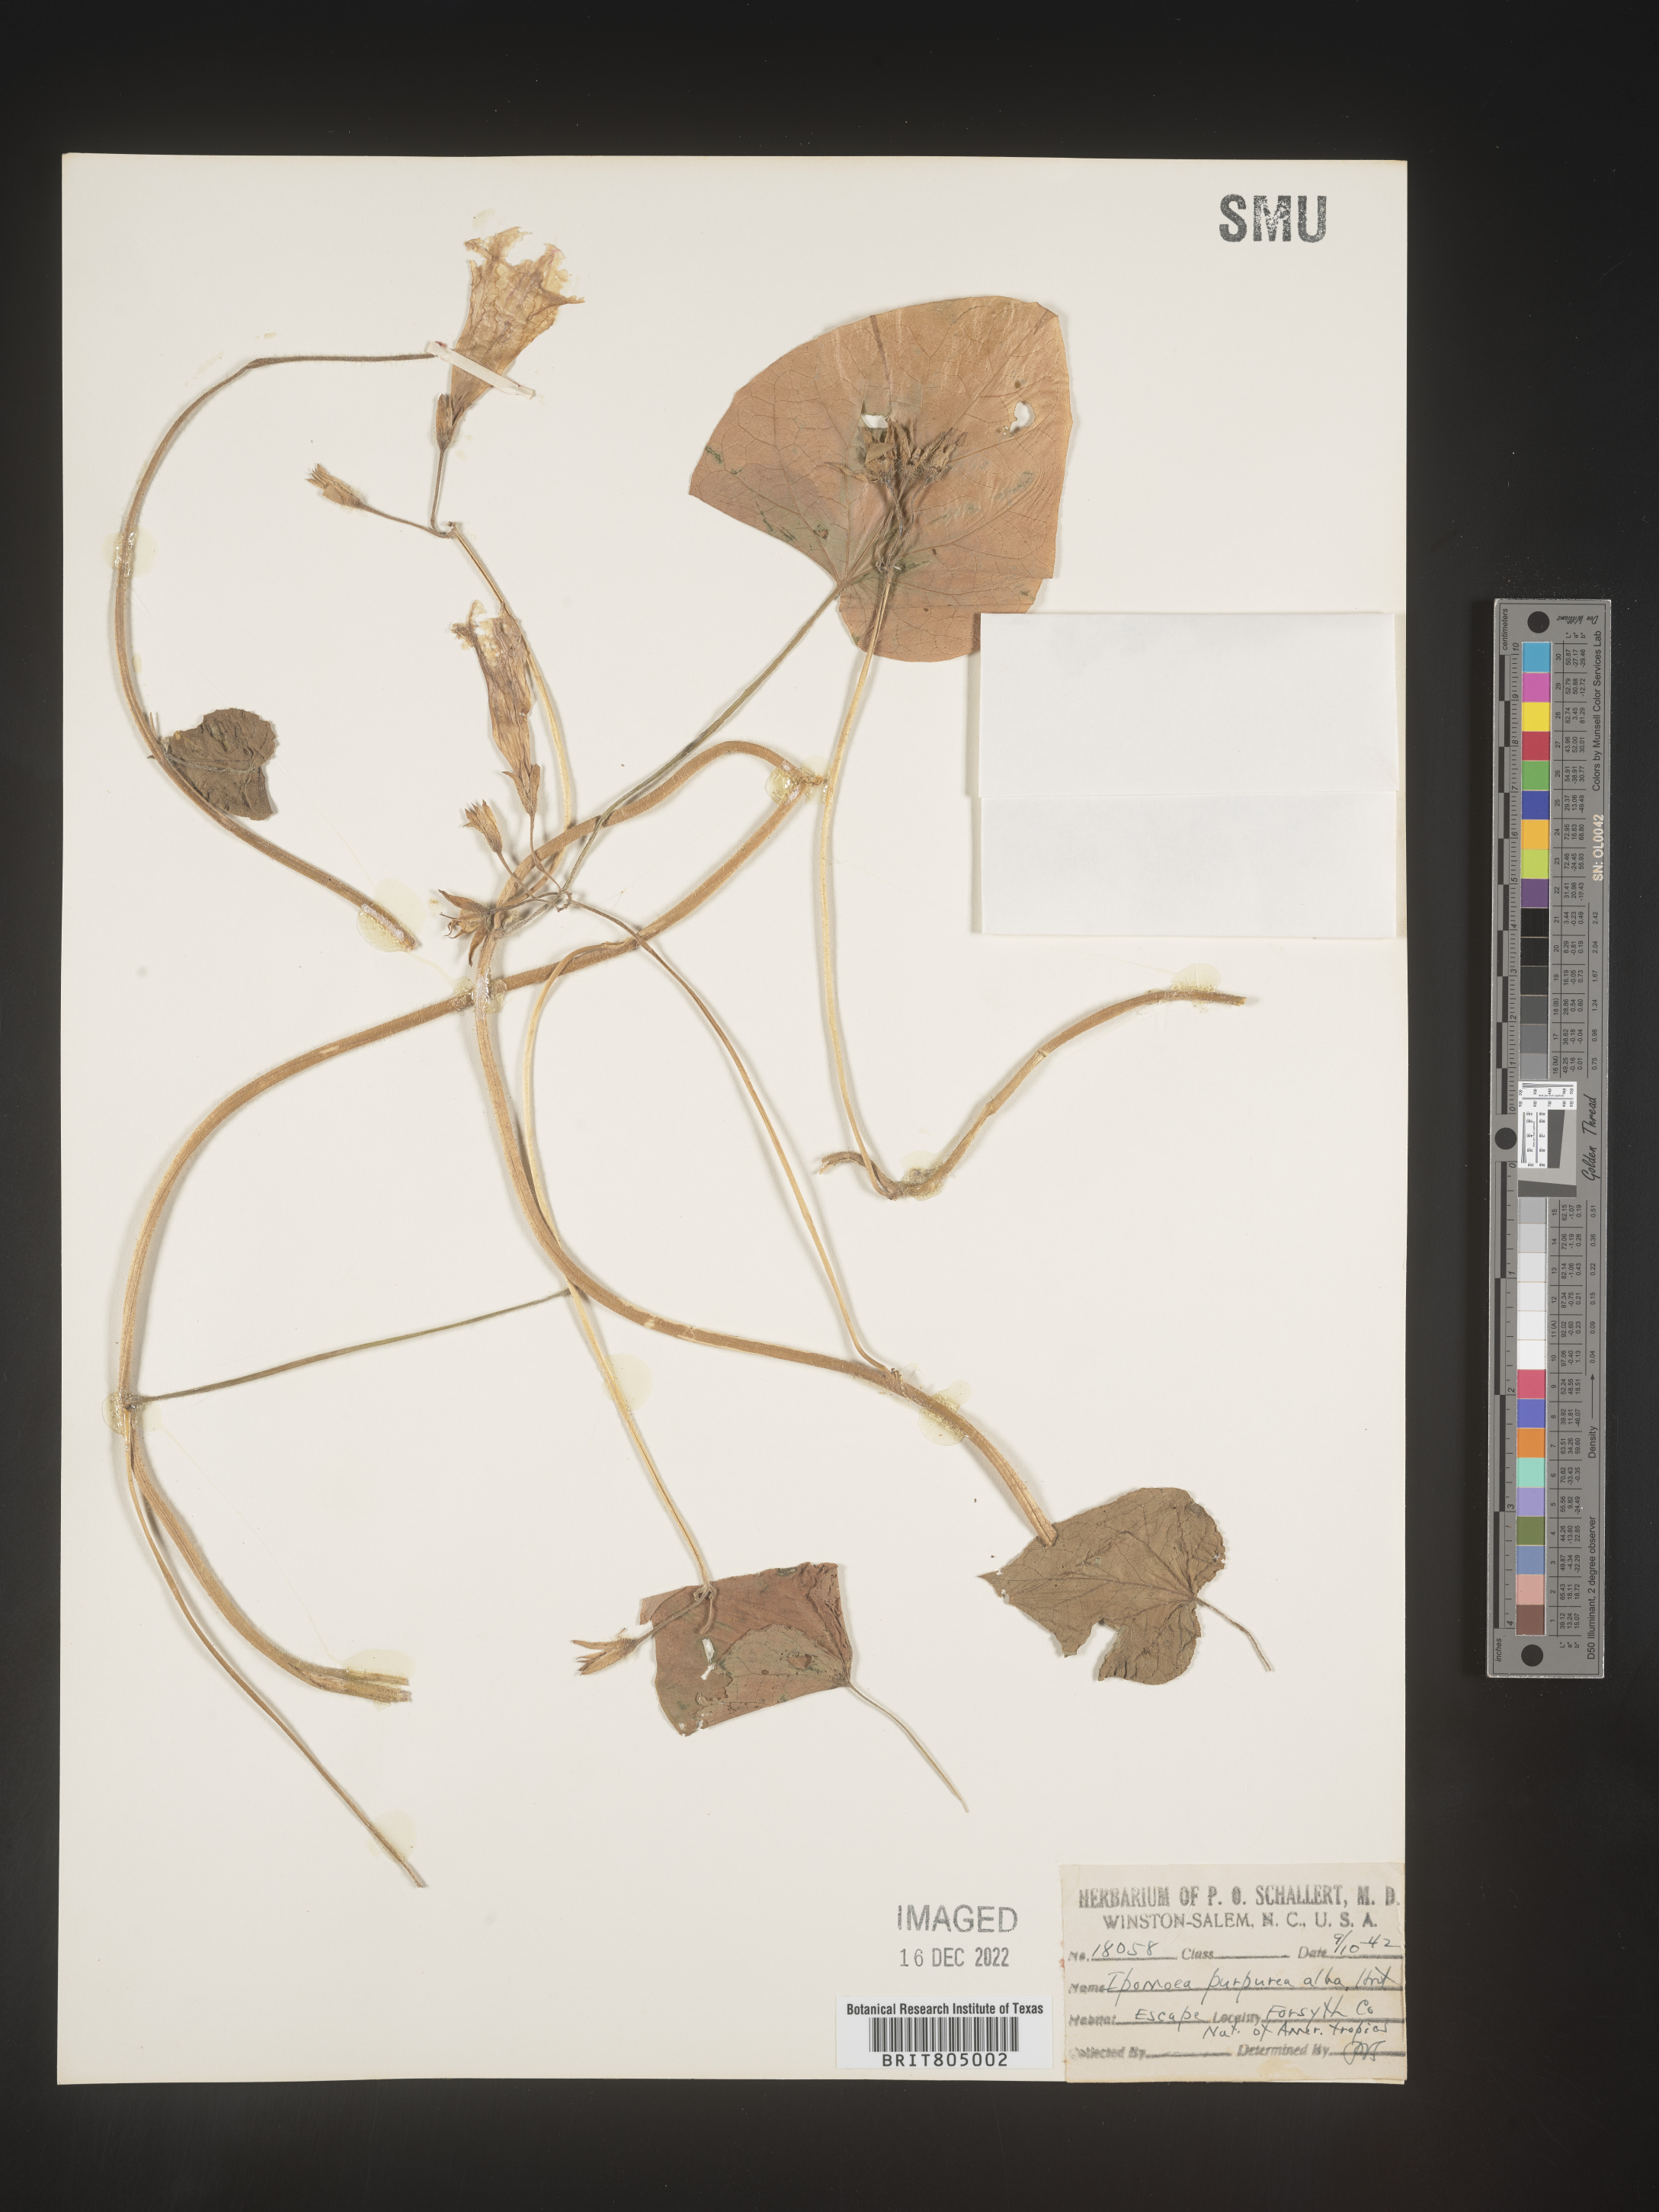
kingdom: Plantae
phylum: Tracheophyta
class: Magnoliopsida
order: Solanales
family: Convolvulaceae
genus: Ipomoea
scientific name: Ipomoea purpurea
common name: Common morning-glory
